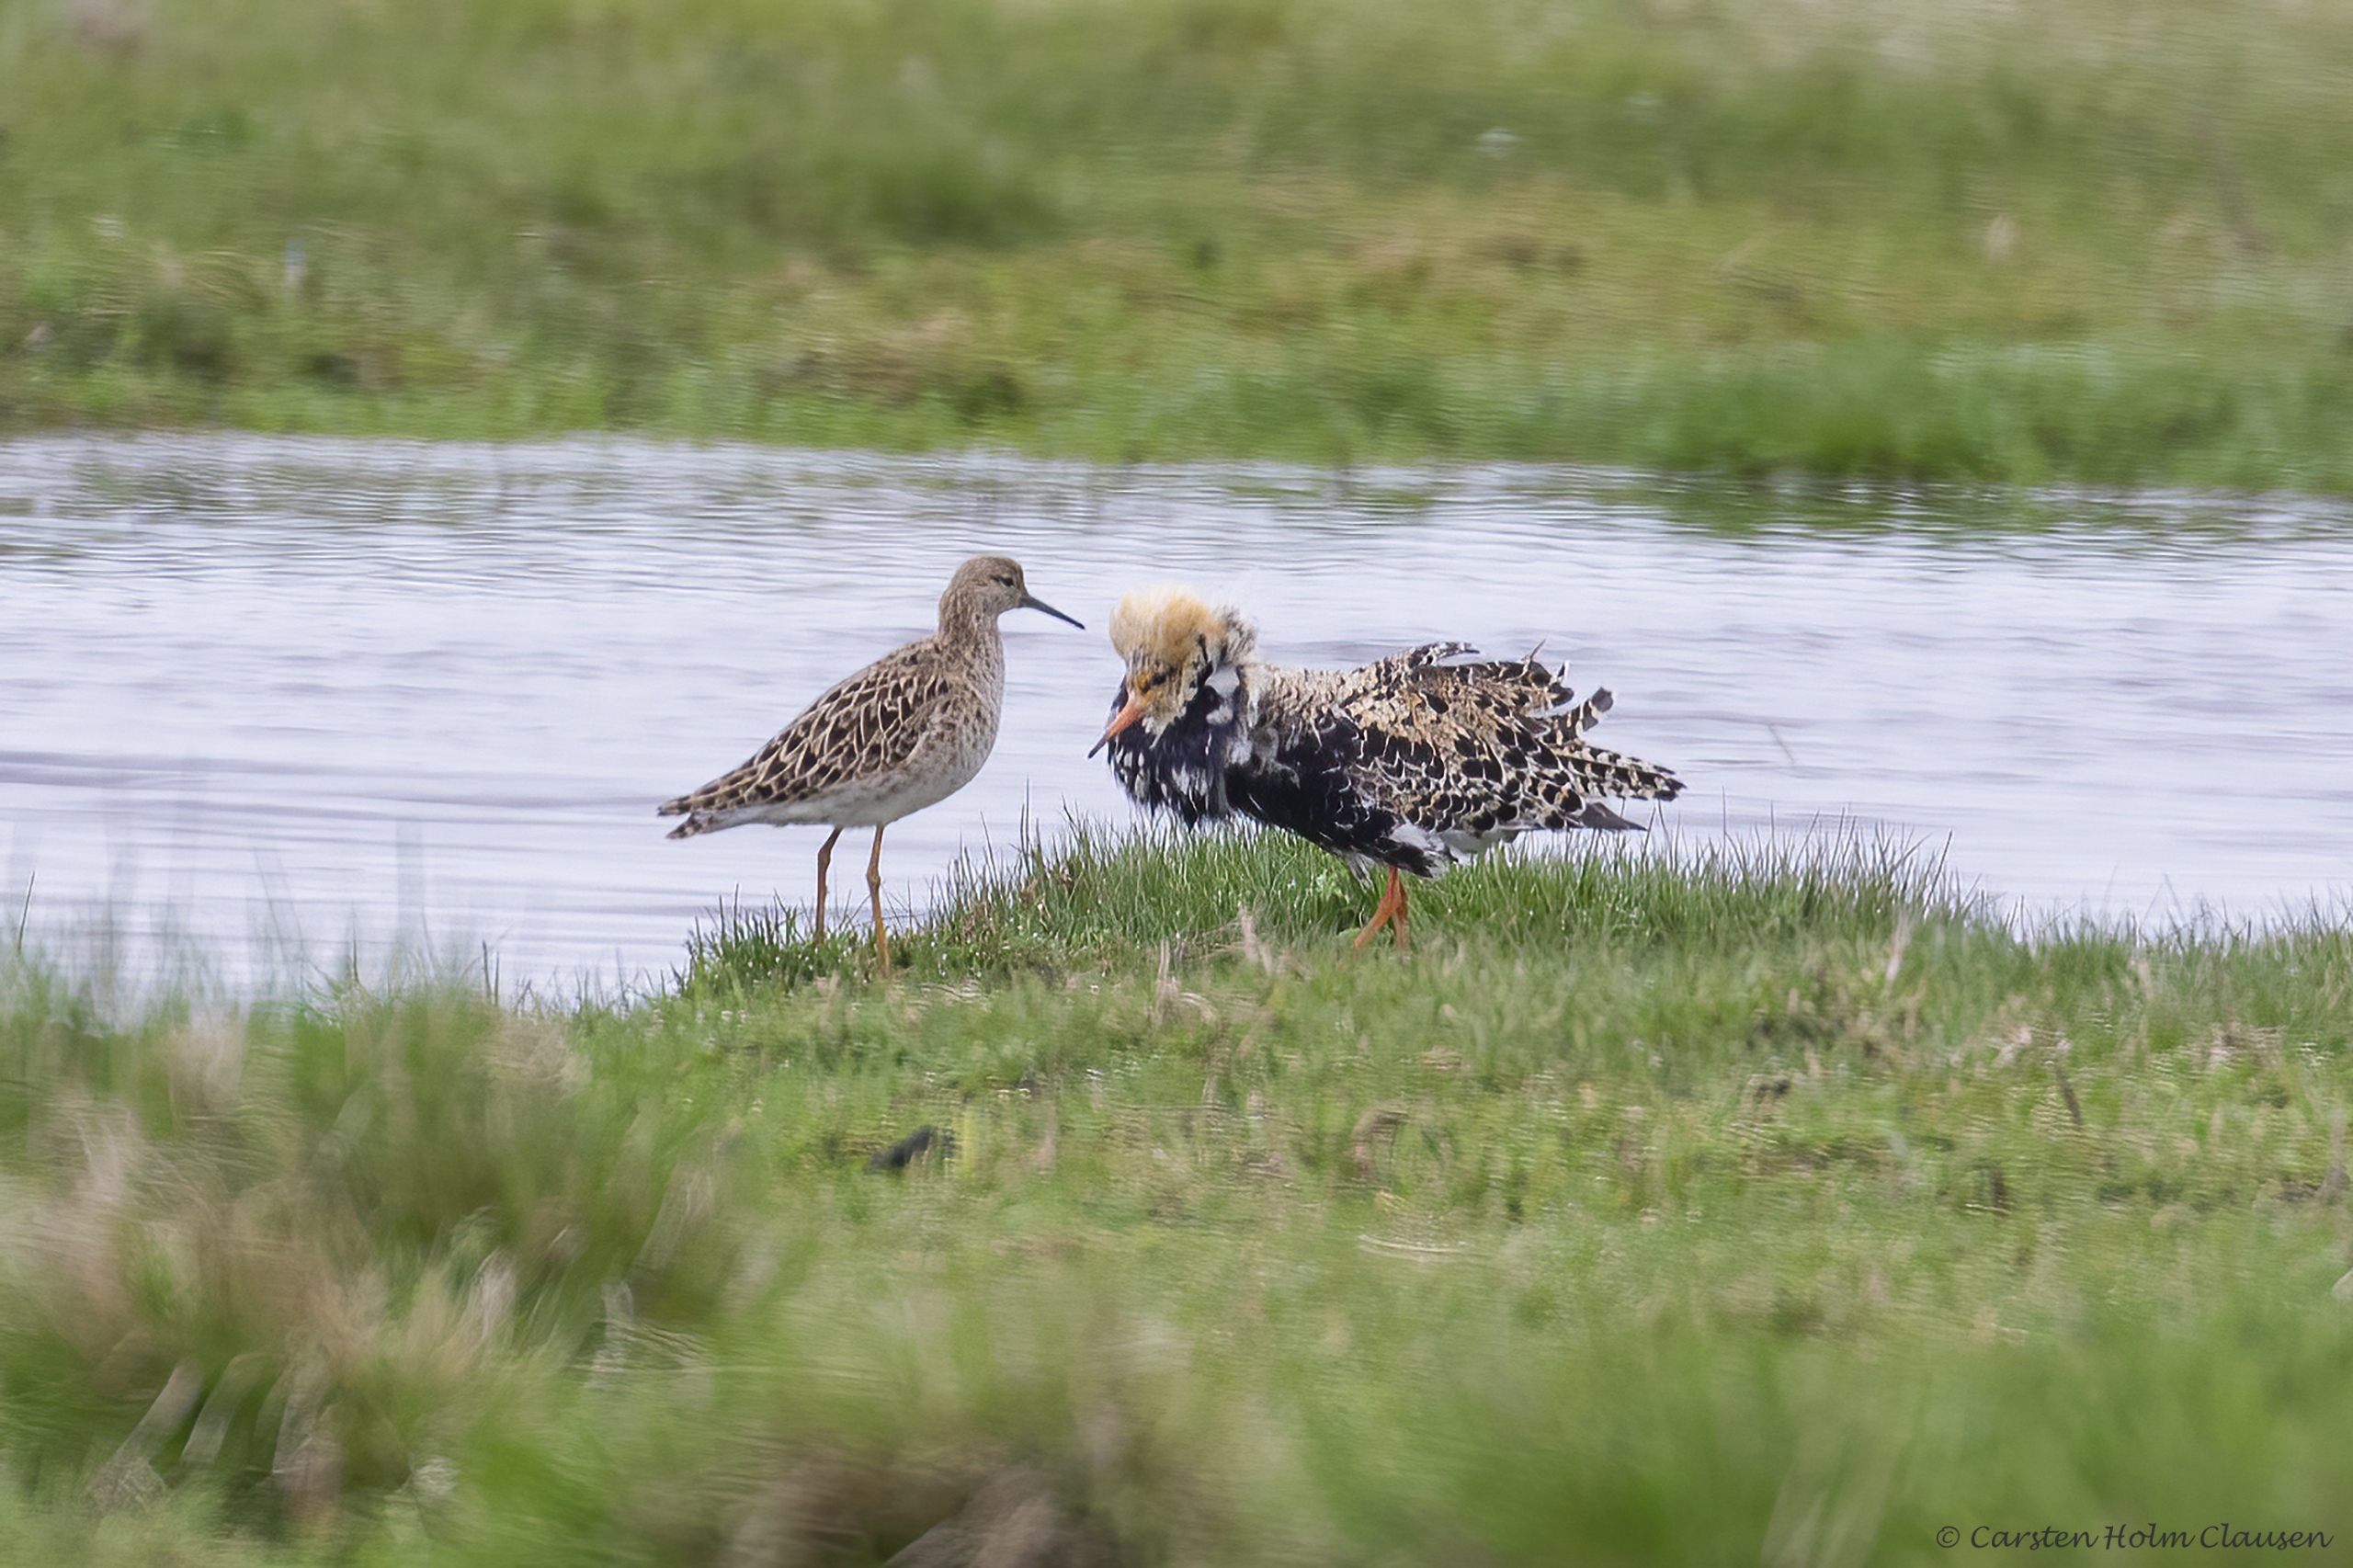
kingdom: Animalia
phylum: Chordata
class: Aves
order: Charadriiformes
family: Scolopacidae
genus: Calidris
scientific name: Calidris pugnax
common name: Brushane
